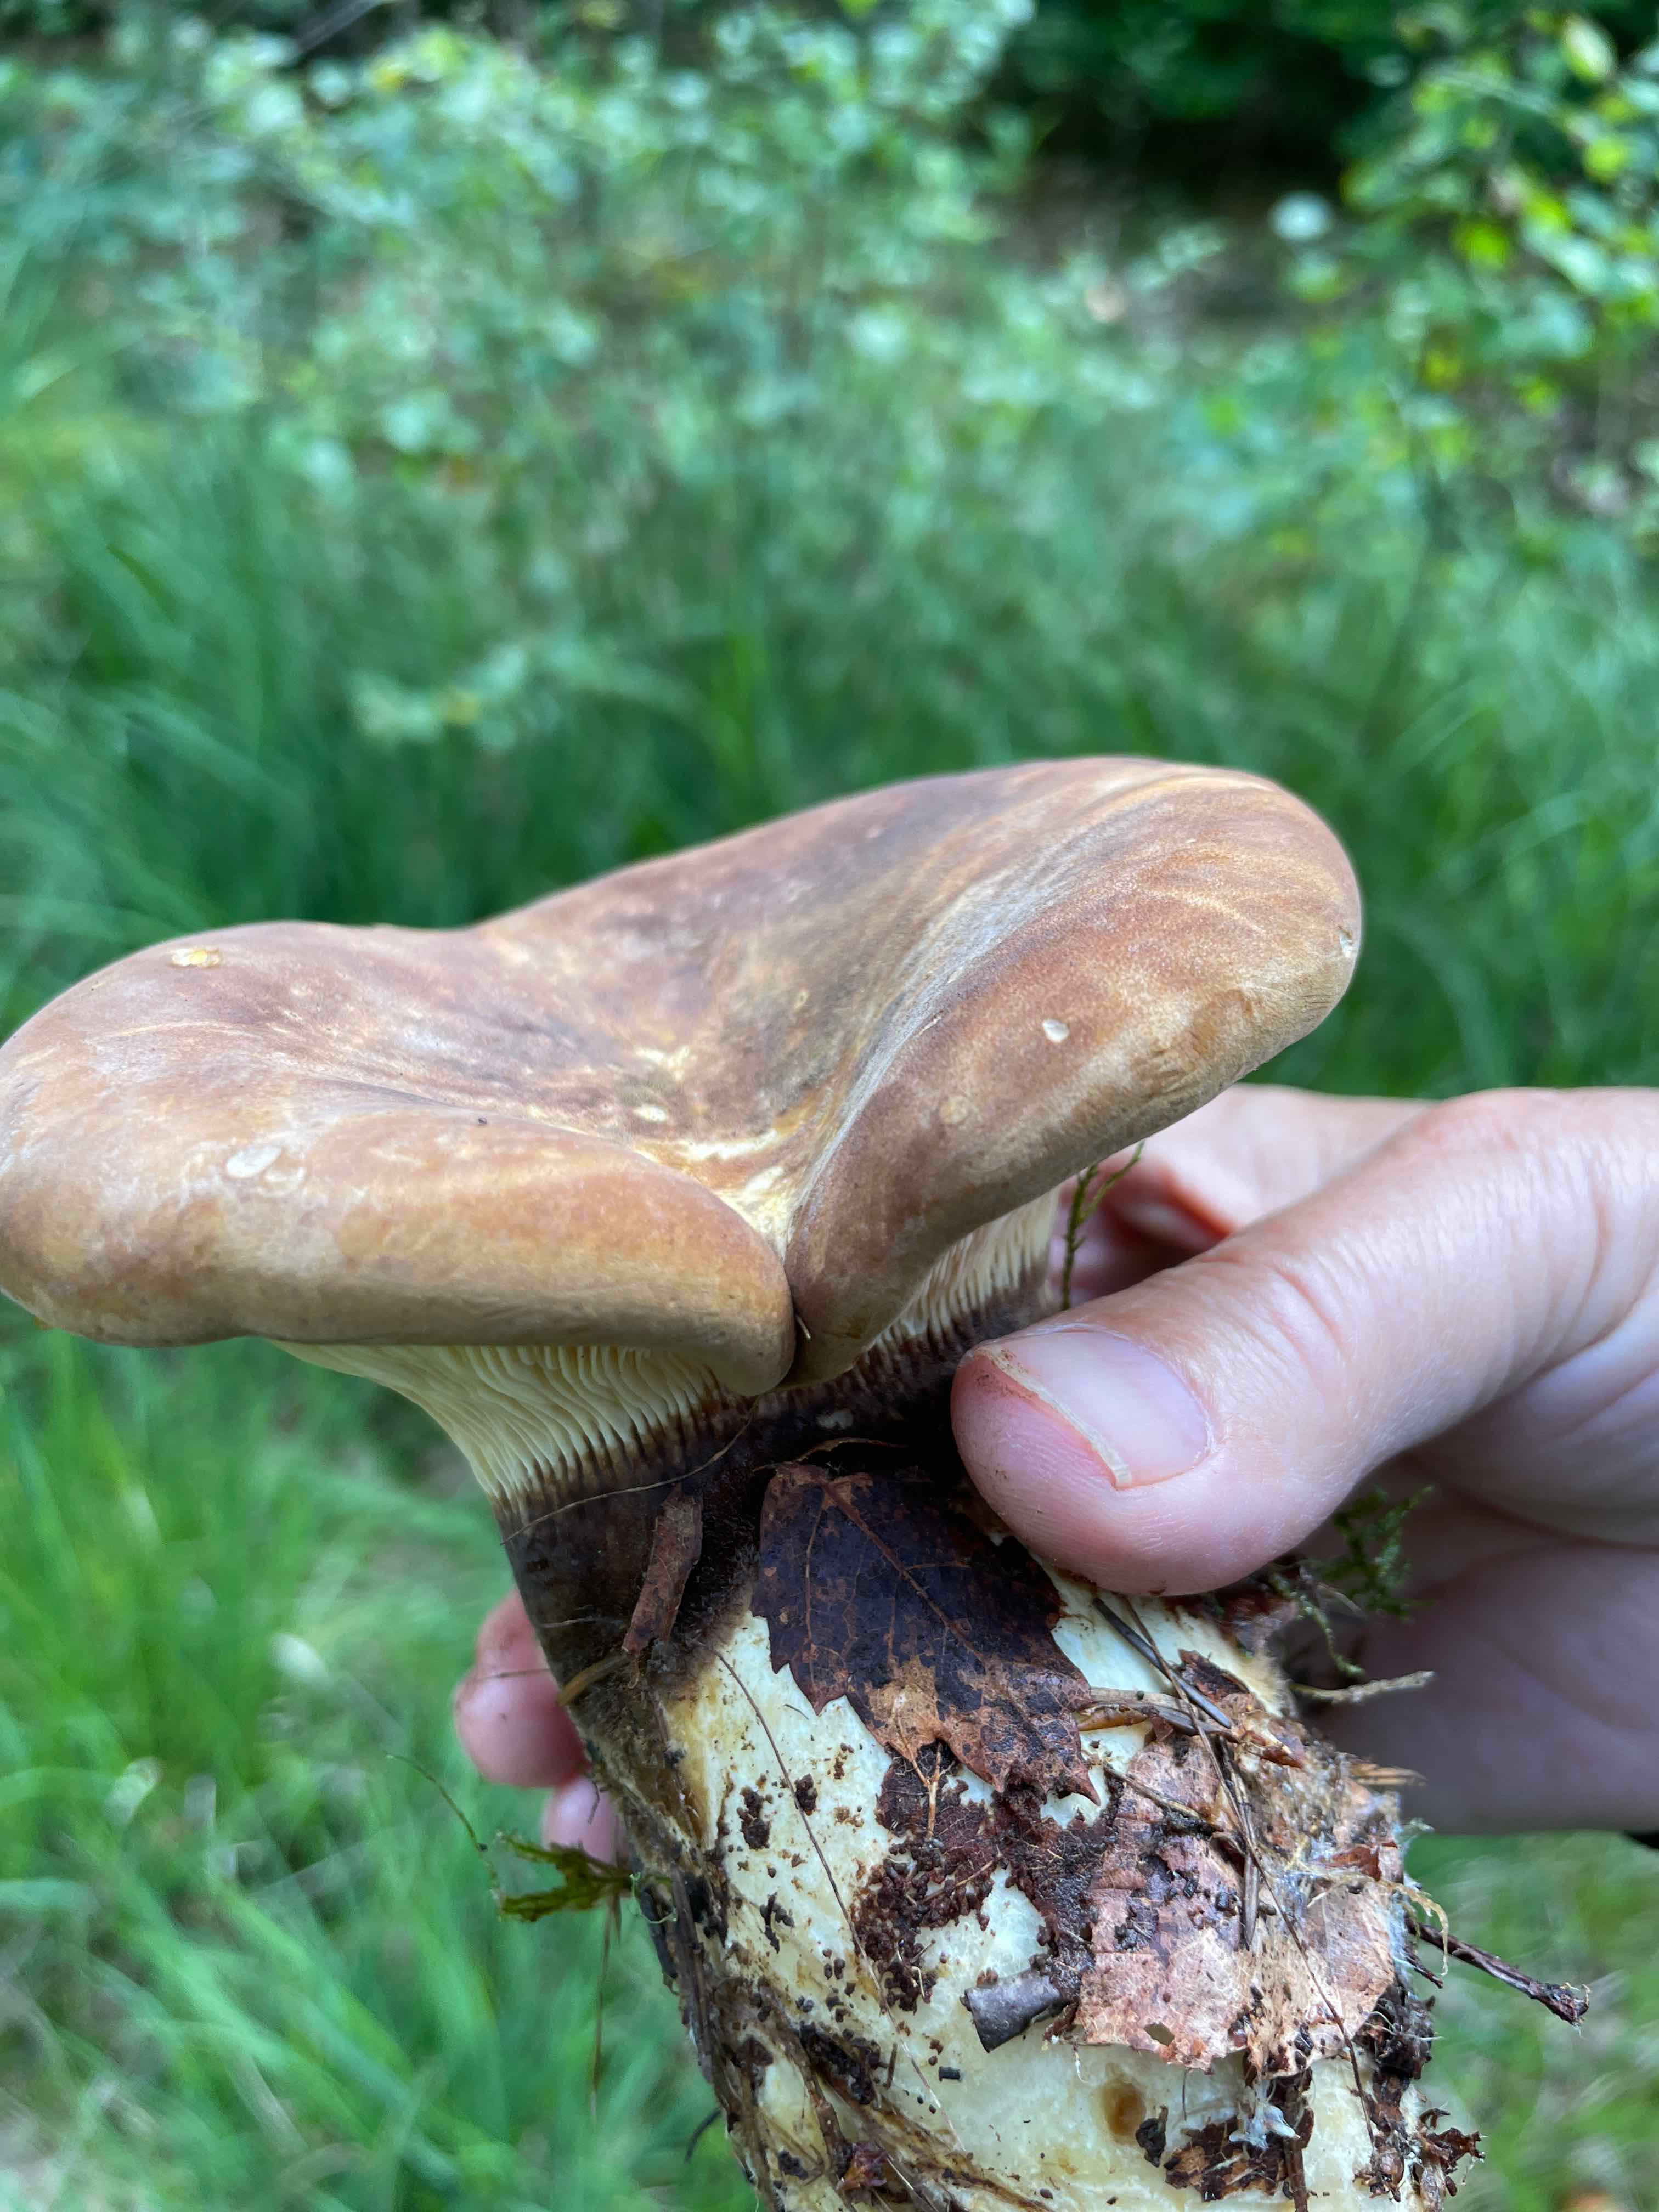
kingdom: Fungi
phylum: Basidiomycota
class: Agaricomycetes
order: Boletales
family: Tapinellaceae
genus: Tapinella
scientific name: Tapinella atrotomentosa
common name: sortfiltet viftesvamp
